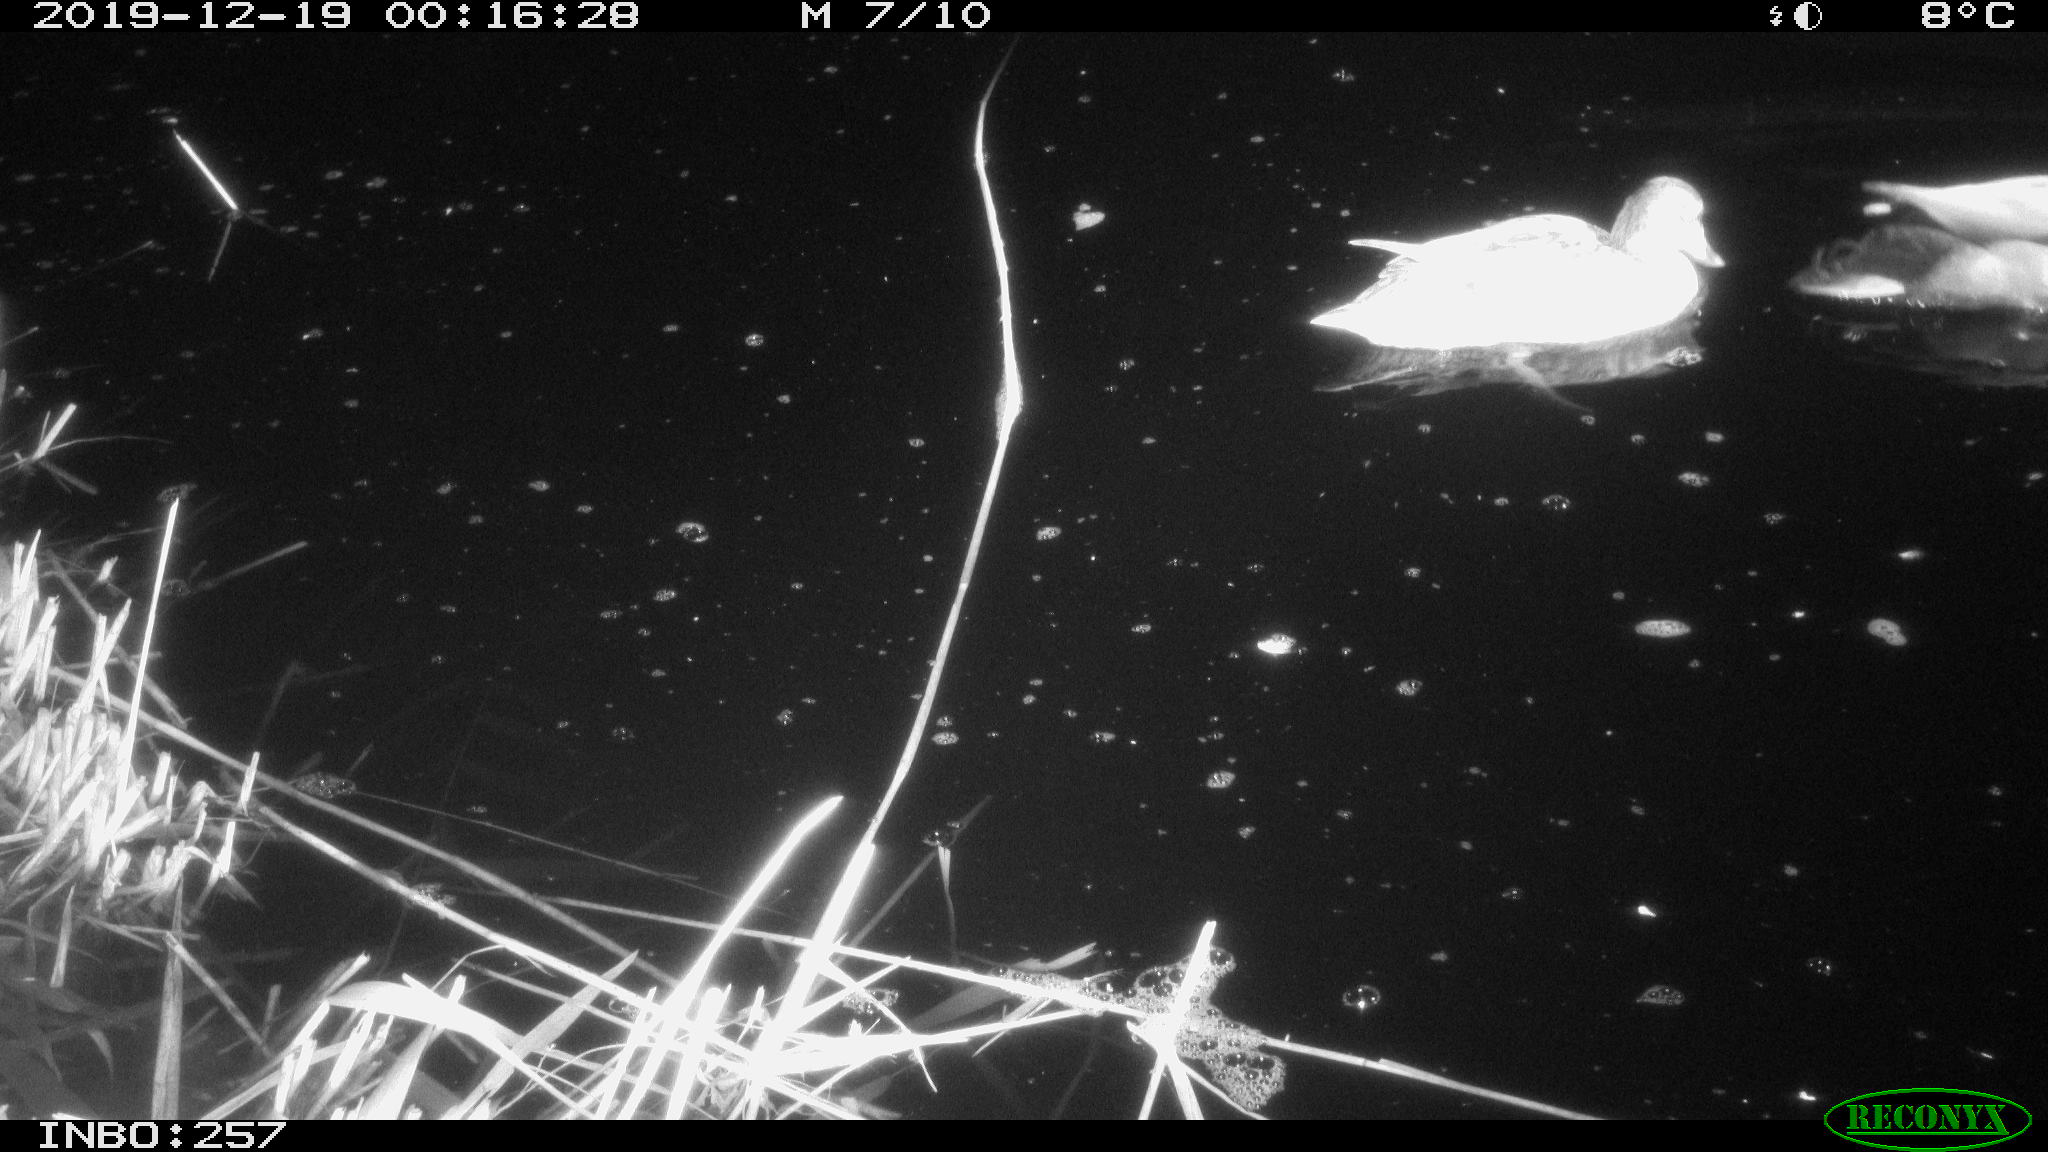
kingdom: Animalia
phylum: Chordata
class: Aves
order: Anseriformes
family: Anatidae
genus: Anas
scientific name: Anas platyrhynchos
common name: Mallard
